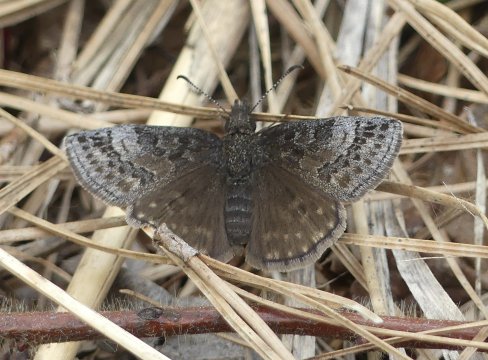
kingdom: Animalia
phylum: Arthropoda
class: Insecta
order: Lepidoptera
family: Hesperiidae
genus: Erynnis
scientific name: Erynnis icelus
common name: Dreamy Duskywing
